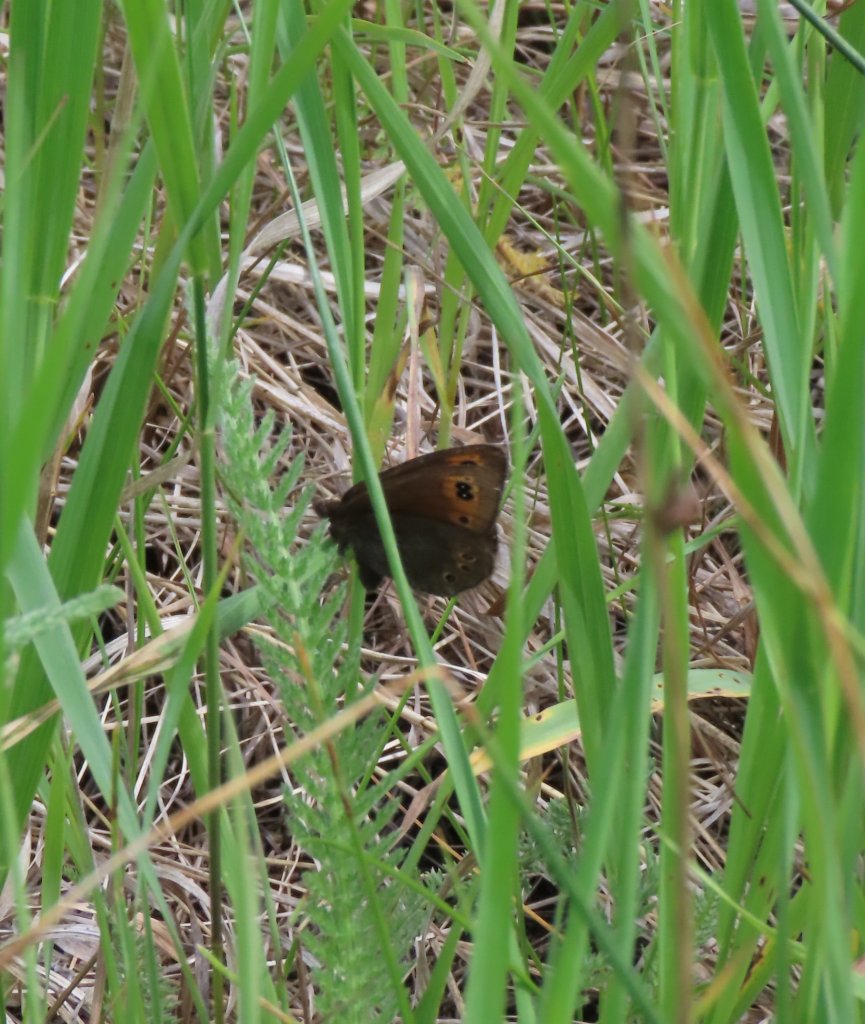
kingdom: Animalia
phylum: Arthropoda
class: Insecta
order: Lepidoptera
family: Nymphalidae
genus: Erebia
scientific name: Erebia epipsodea
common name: Common Alpine
